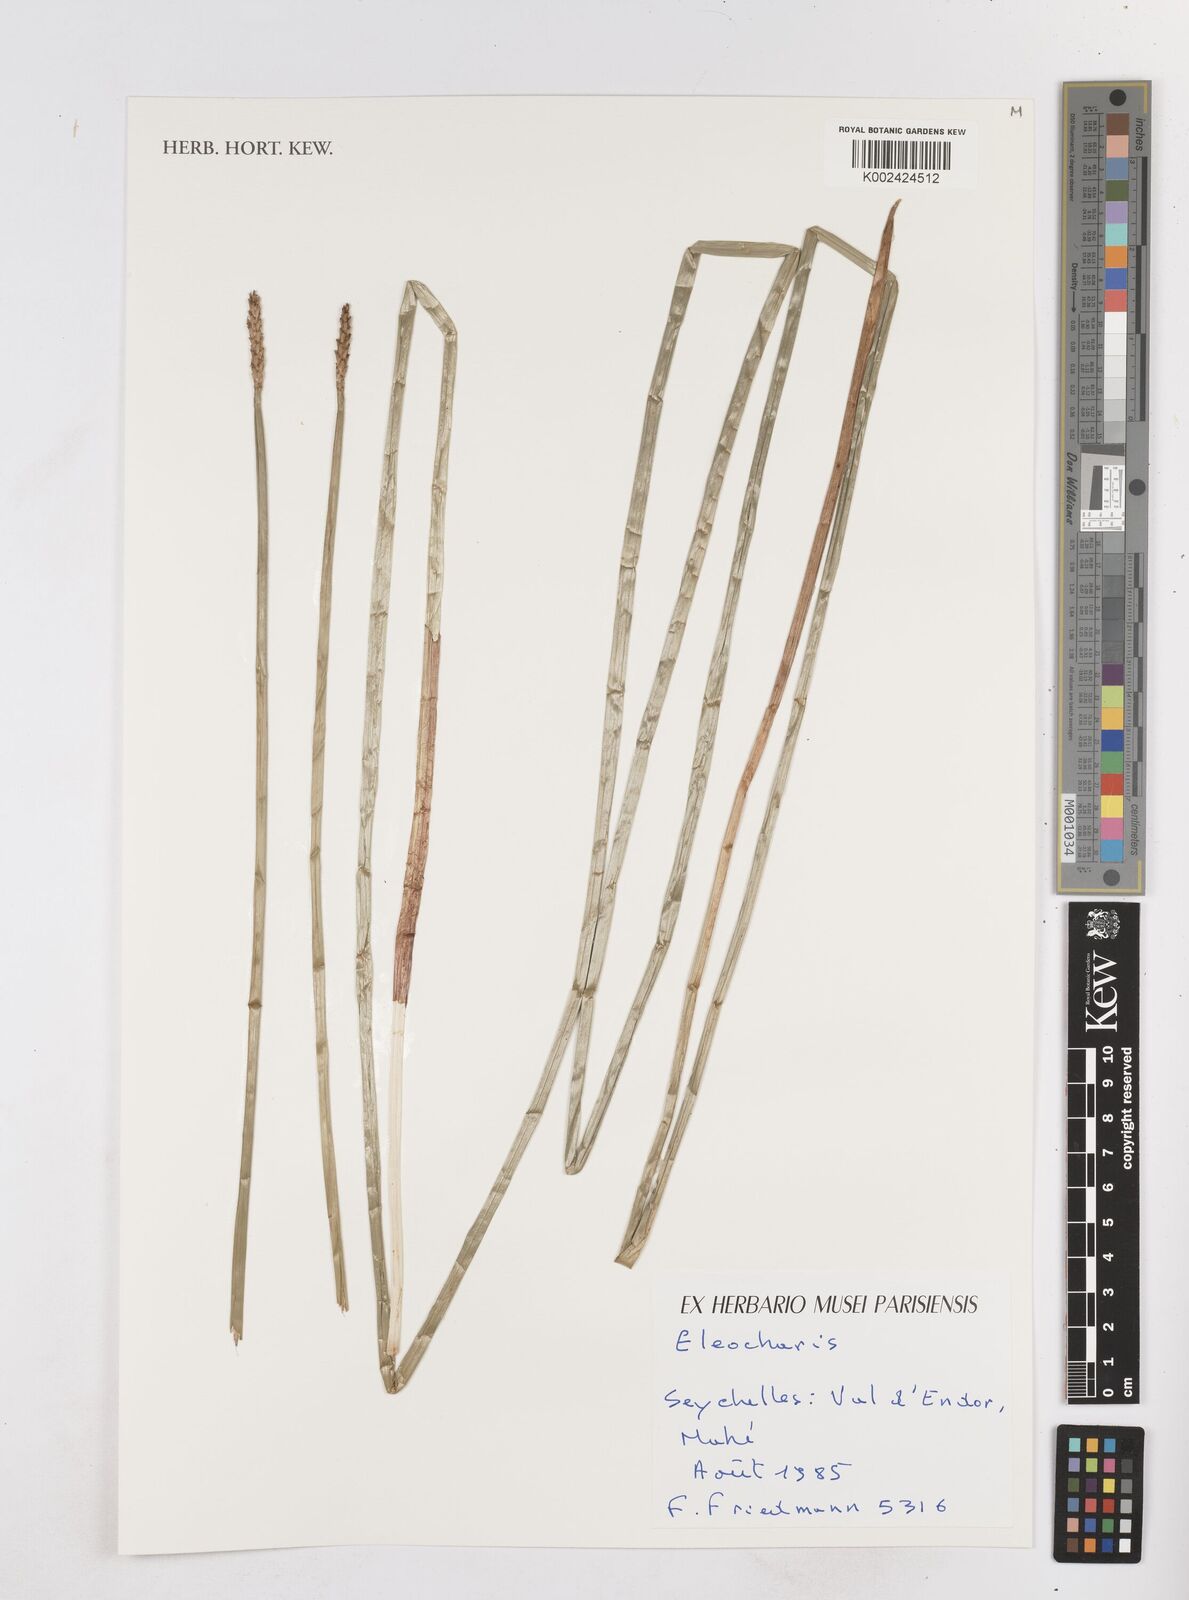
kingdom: Plantae
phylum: Tracheophyta
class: Liliopsida
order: Poales
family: Cyperaceae
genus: Eleocharis
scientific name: Eleocharis
